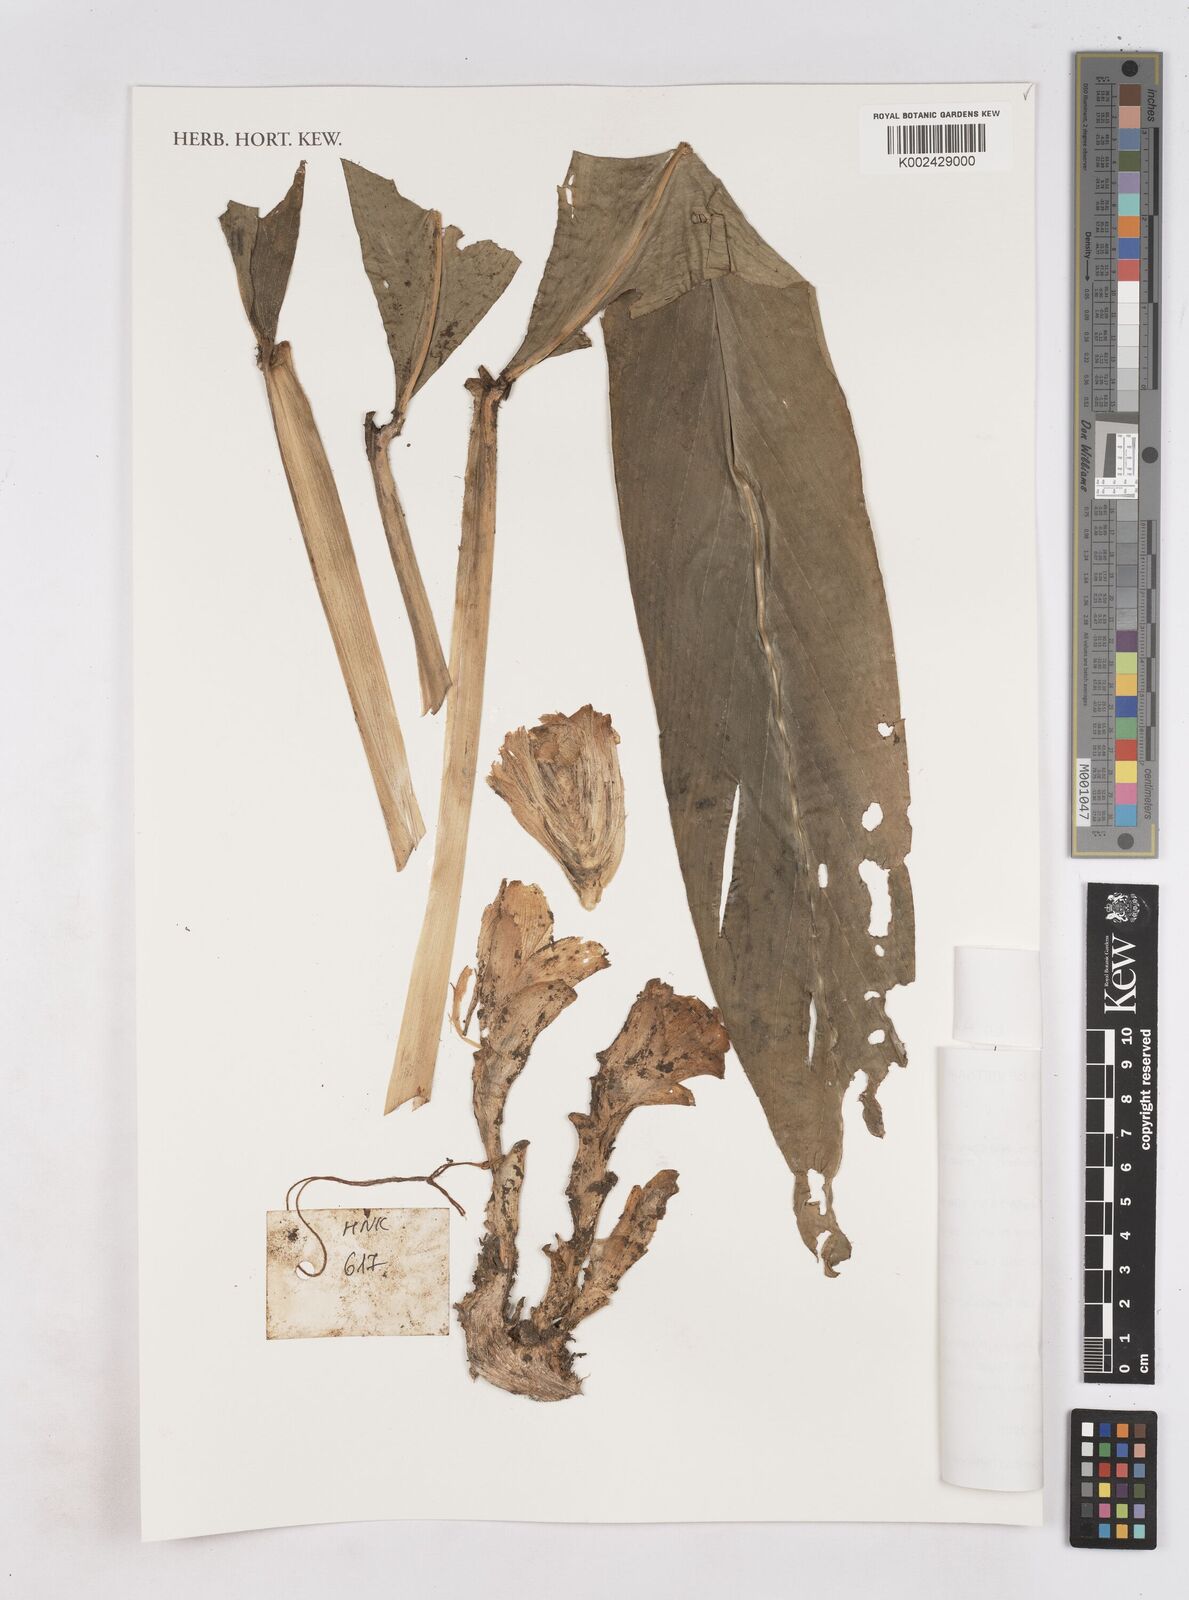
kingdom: Plantae
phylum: Tracheophyta
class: Liliopsida
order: Zingiberales
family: Zingiberaceae
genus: Zingiber
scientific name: Zingiber
